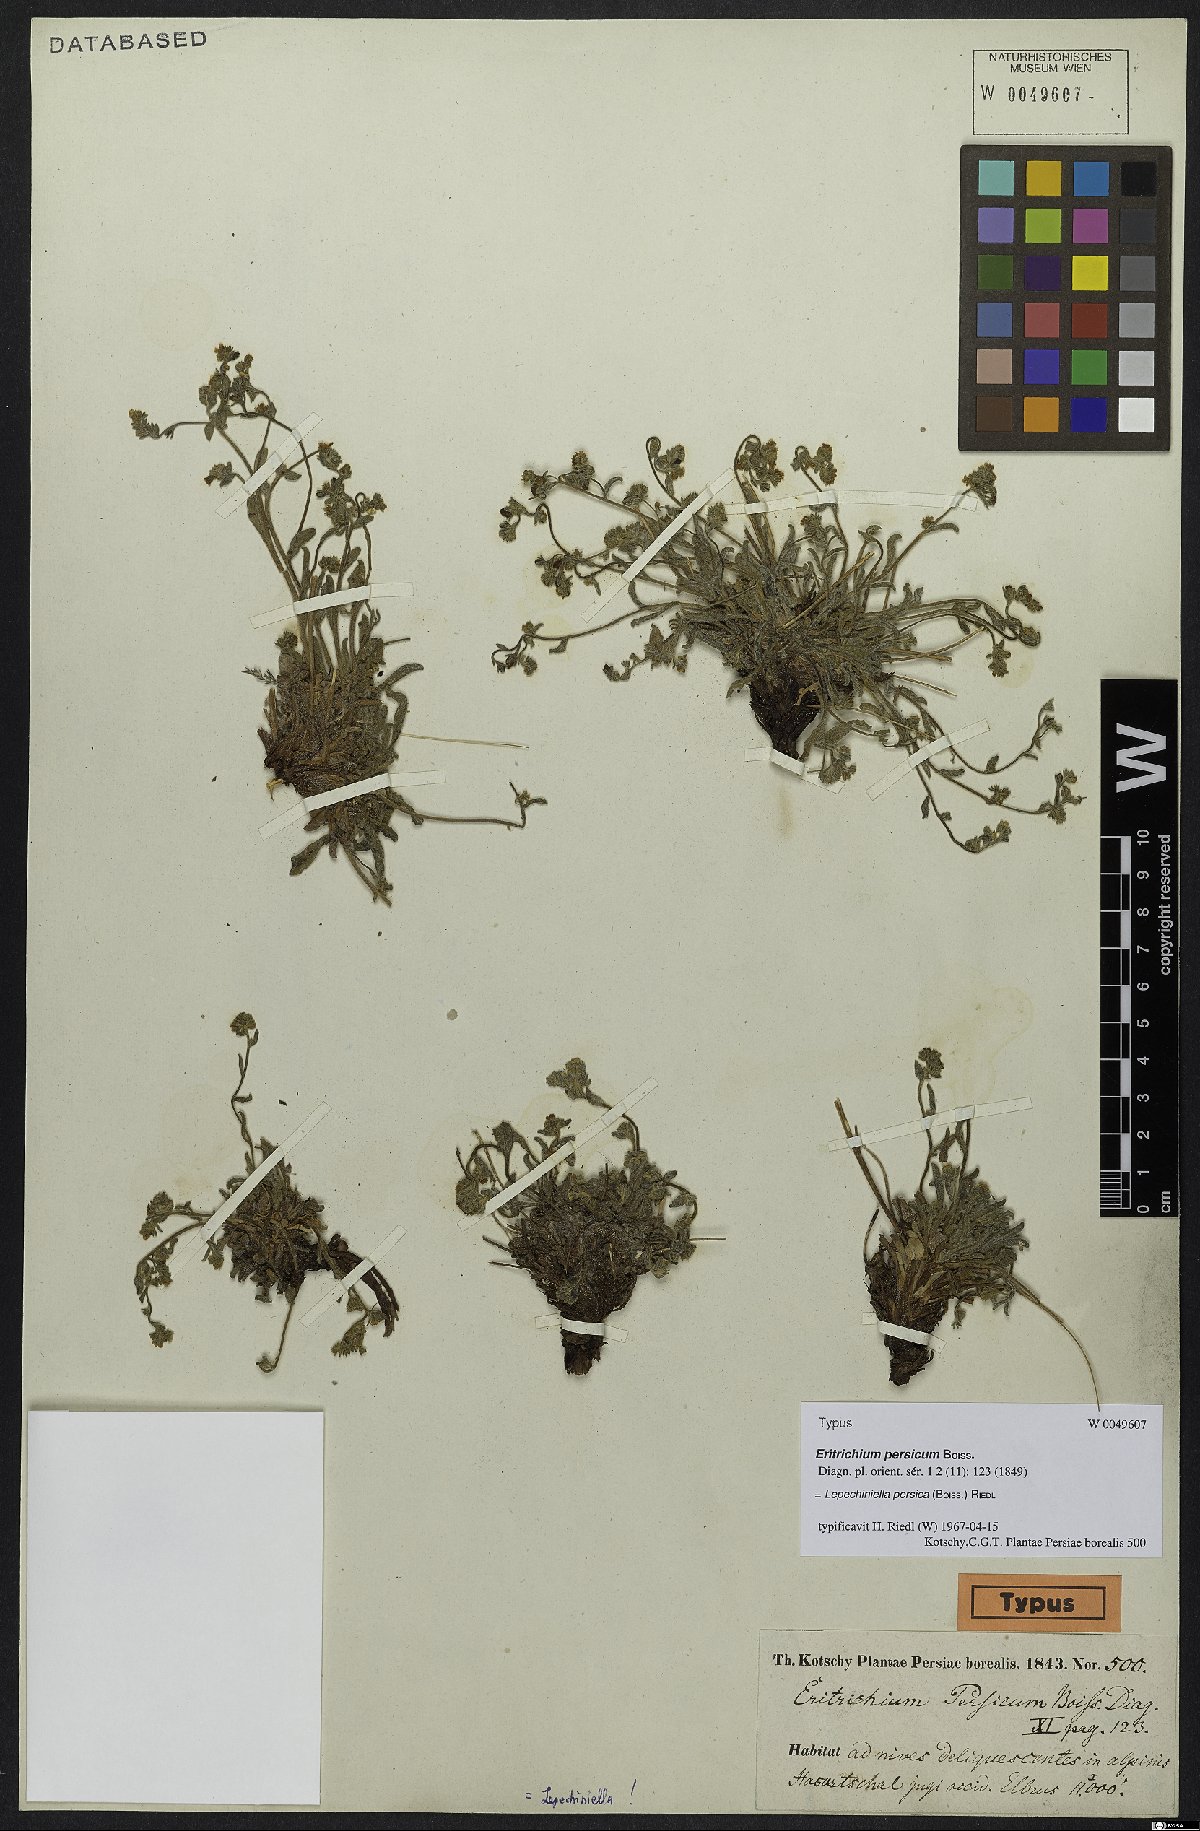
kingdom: Plantae
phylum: Tracheophyta
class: Magnoliopsida
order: Boraginales
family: Boraginaceae
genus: Lepechiniella
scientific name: Lepechiniella persica
